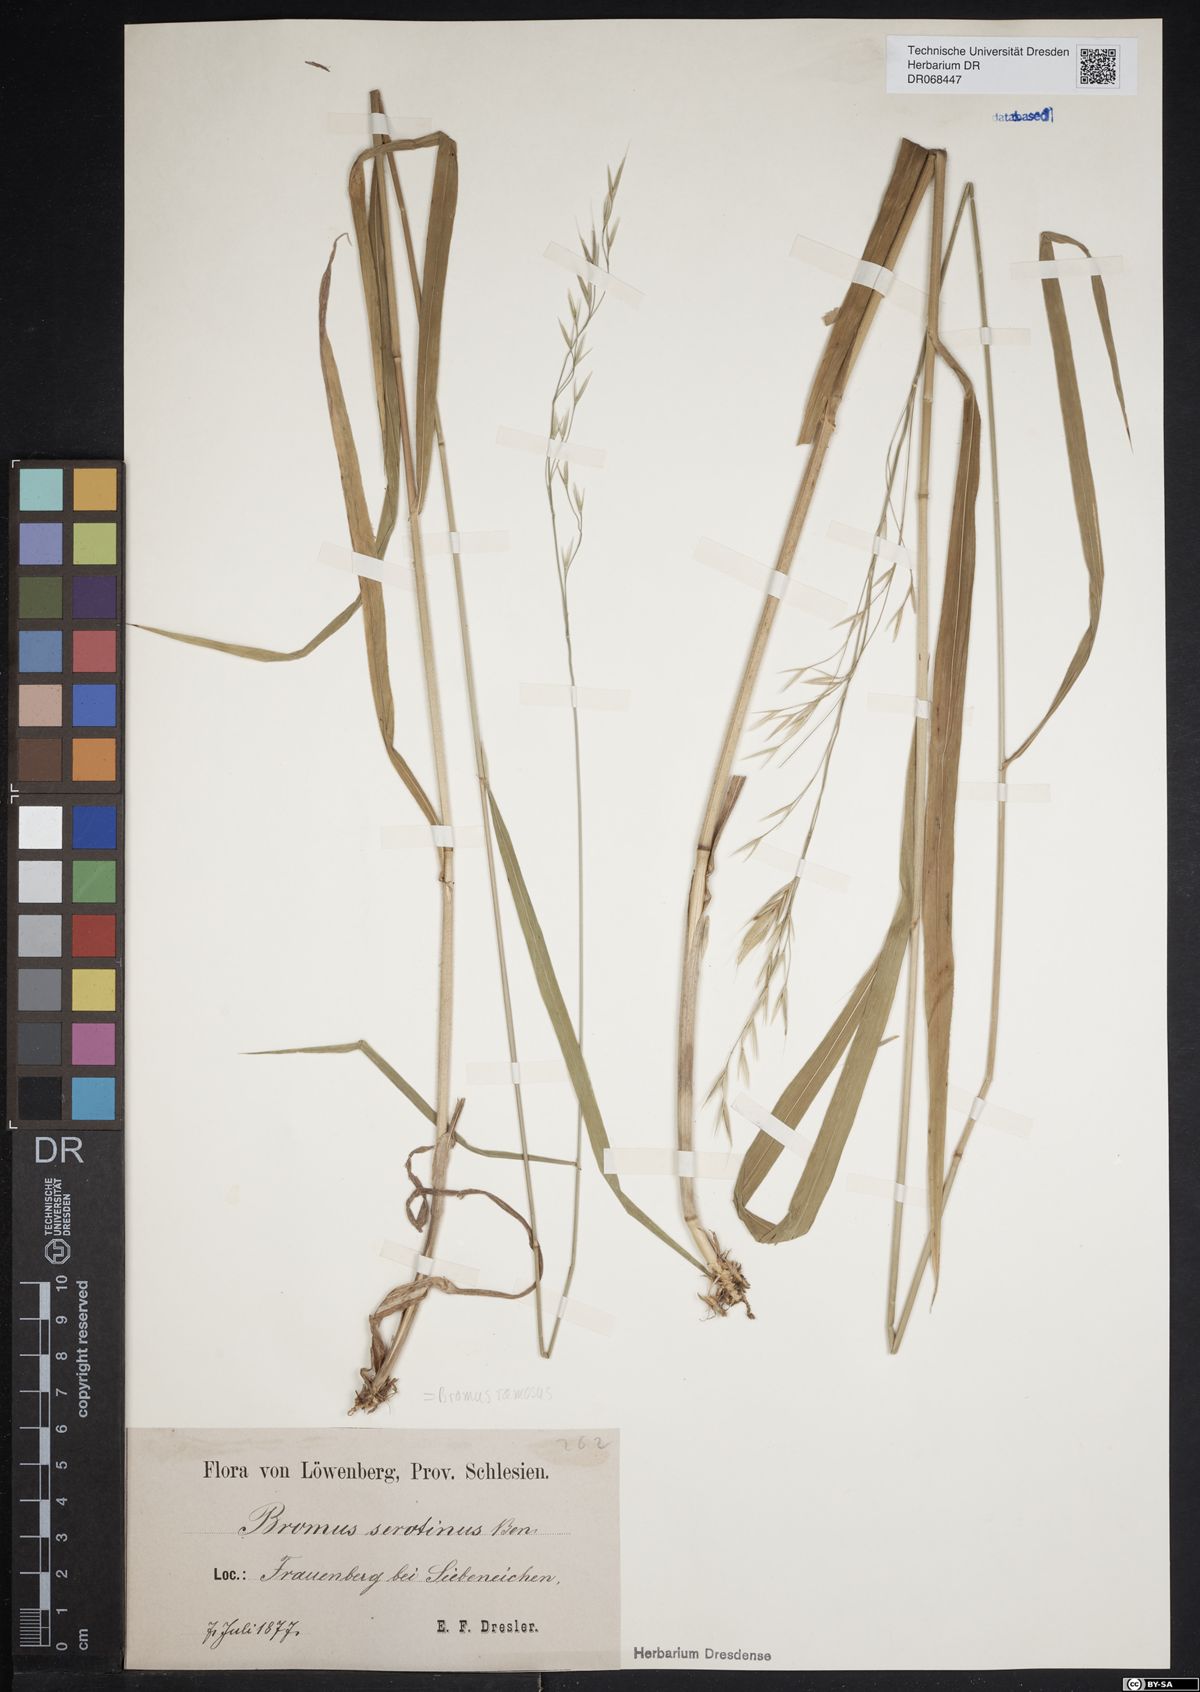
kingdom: Plantae
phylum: Tracheophyta
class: Liliopsida
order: Poales
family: Poaceae
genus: Bromus
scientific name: Bromus ramosus
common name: Hairy brome
